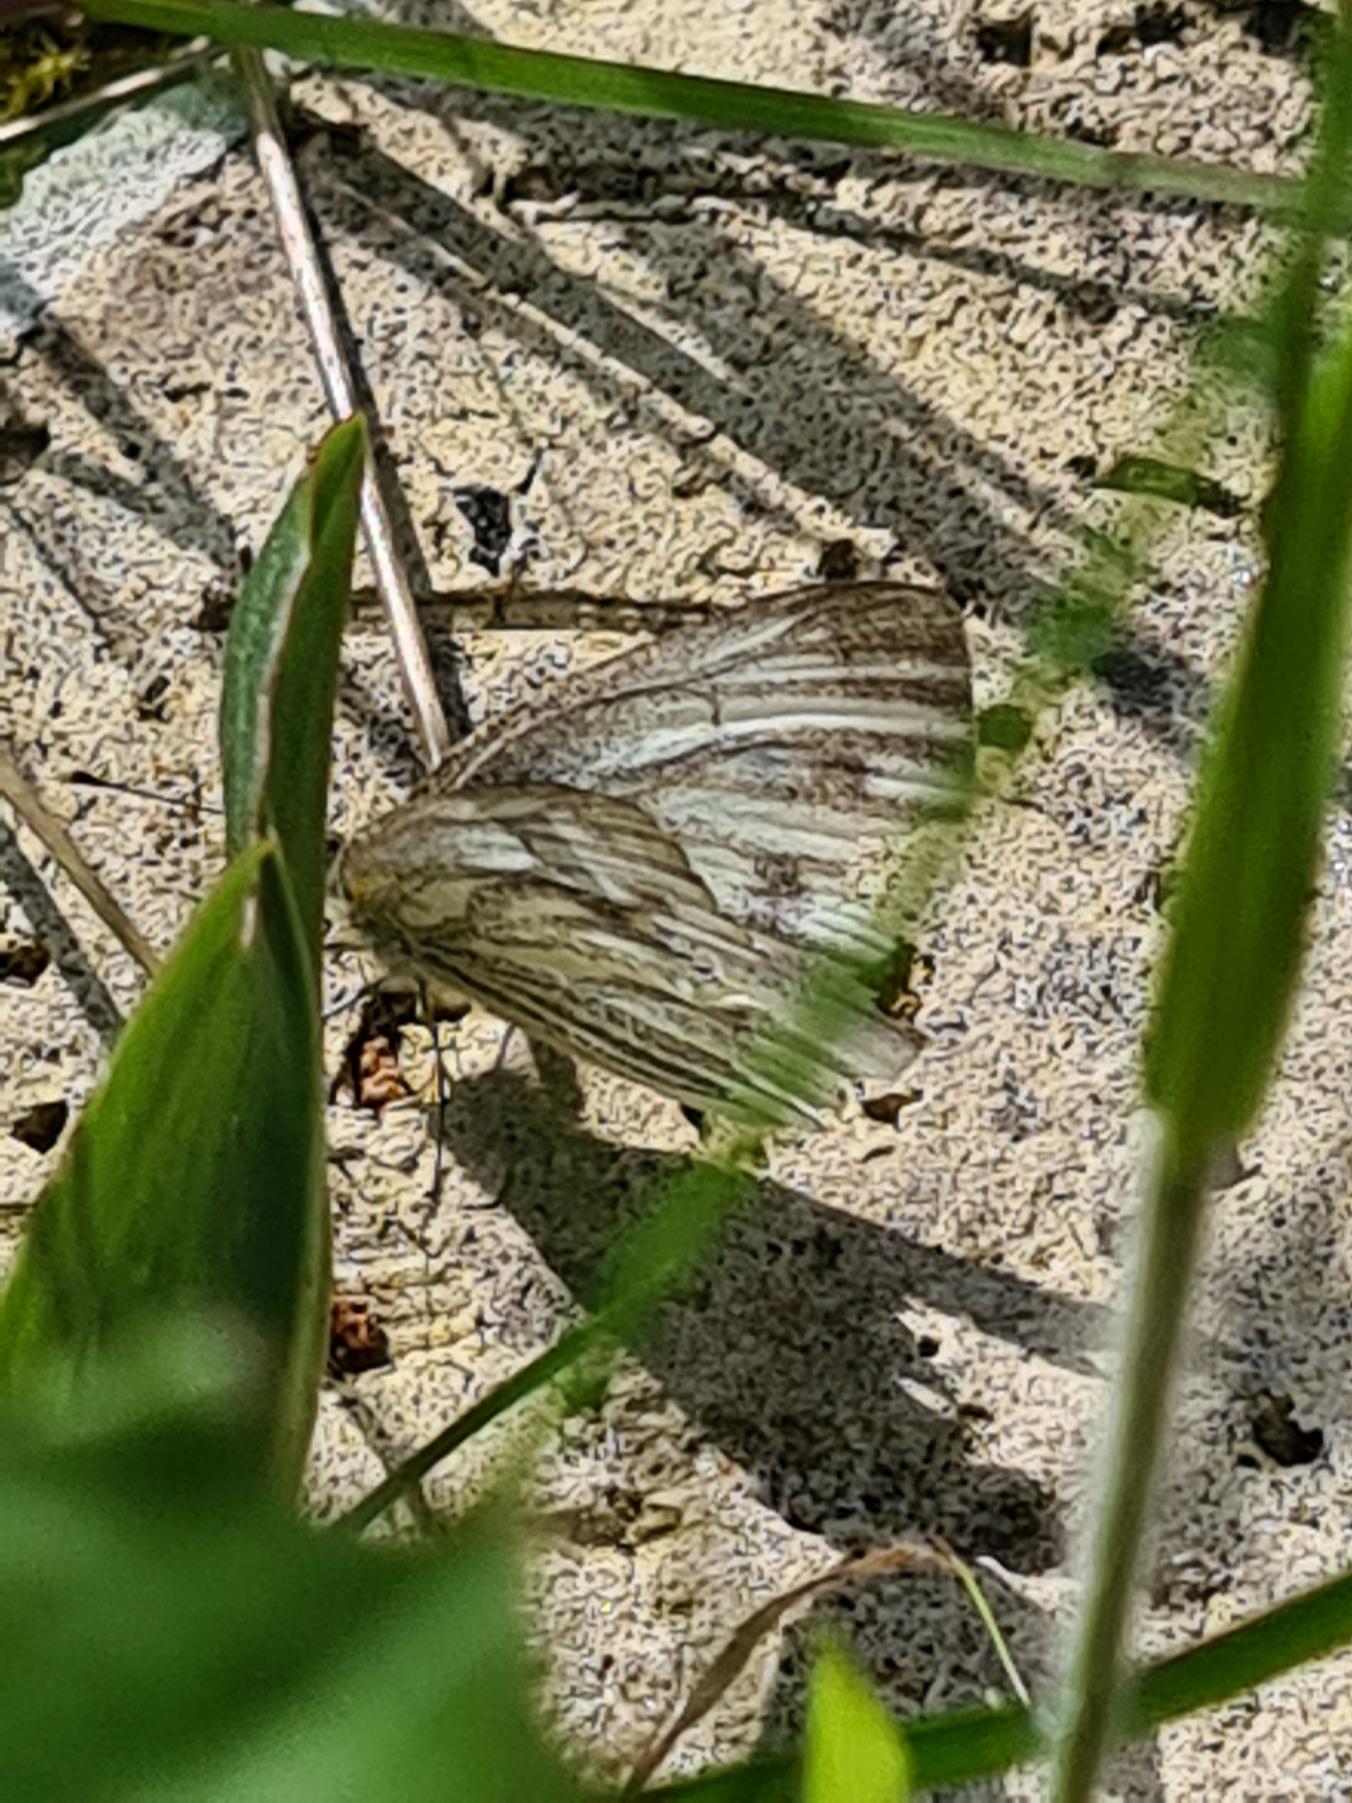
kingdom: Animalia
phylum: Arthropoda
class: Insecta
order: Lepidoptera
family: Pieridae
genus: Pieris
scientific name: Pieris napi
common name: Grønåret kålsommerfugl
